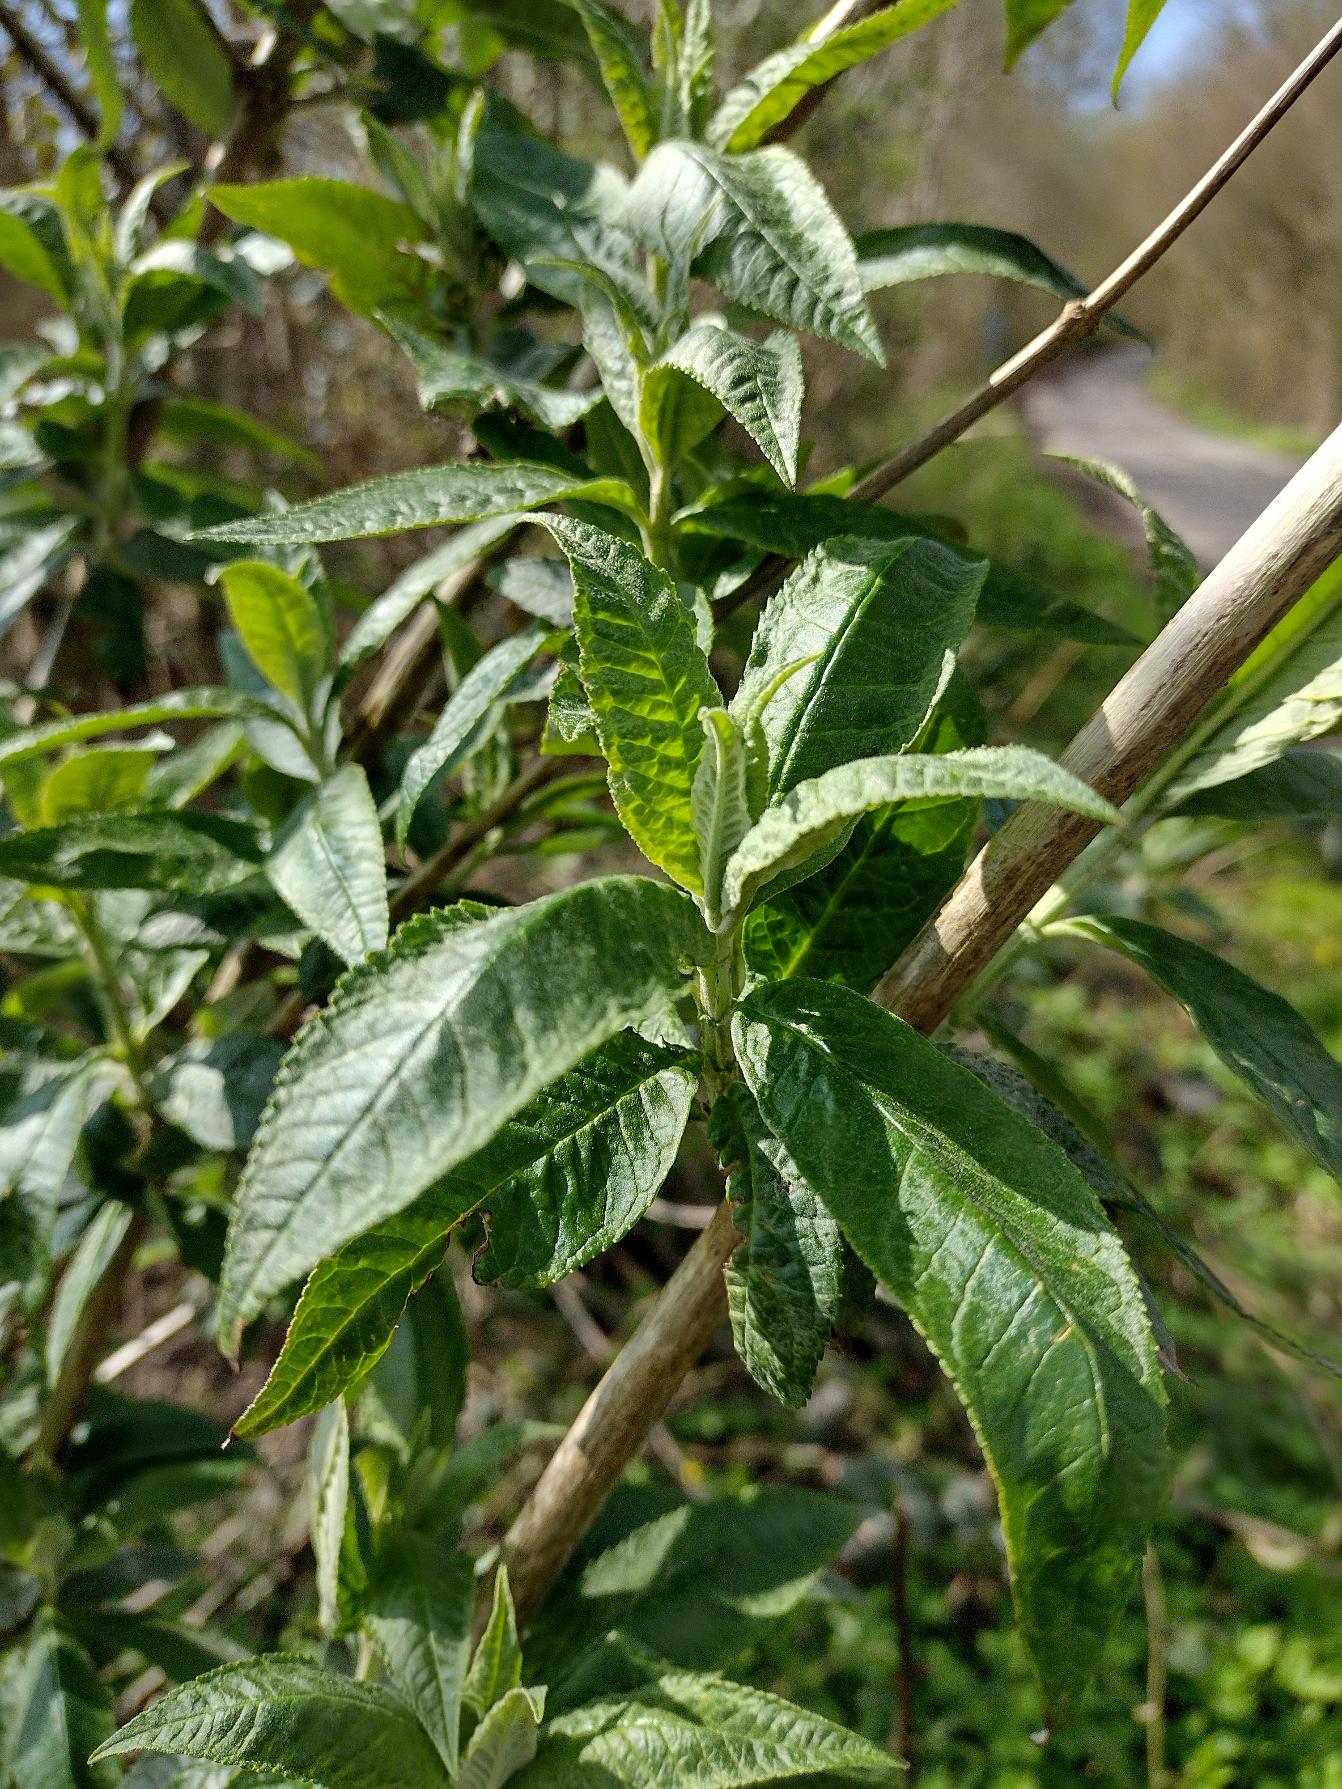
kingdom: Plantae
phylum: Tracheophyta
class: Magnoliopsida
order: Lamiales
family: Scrophulariaceae
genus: Buddleja
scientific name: Buddleja davidii
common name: Sommerfuglebusk
